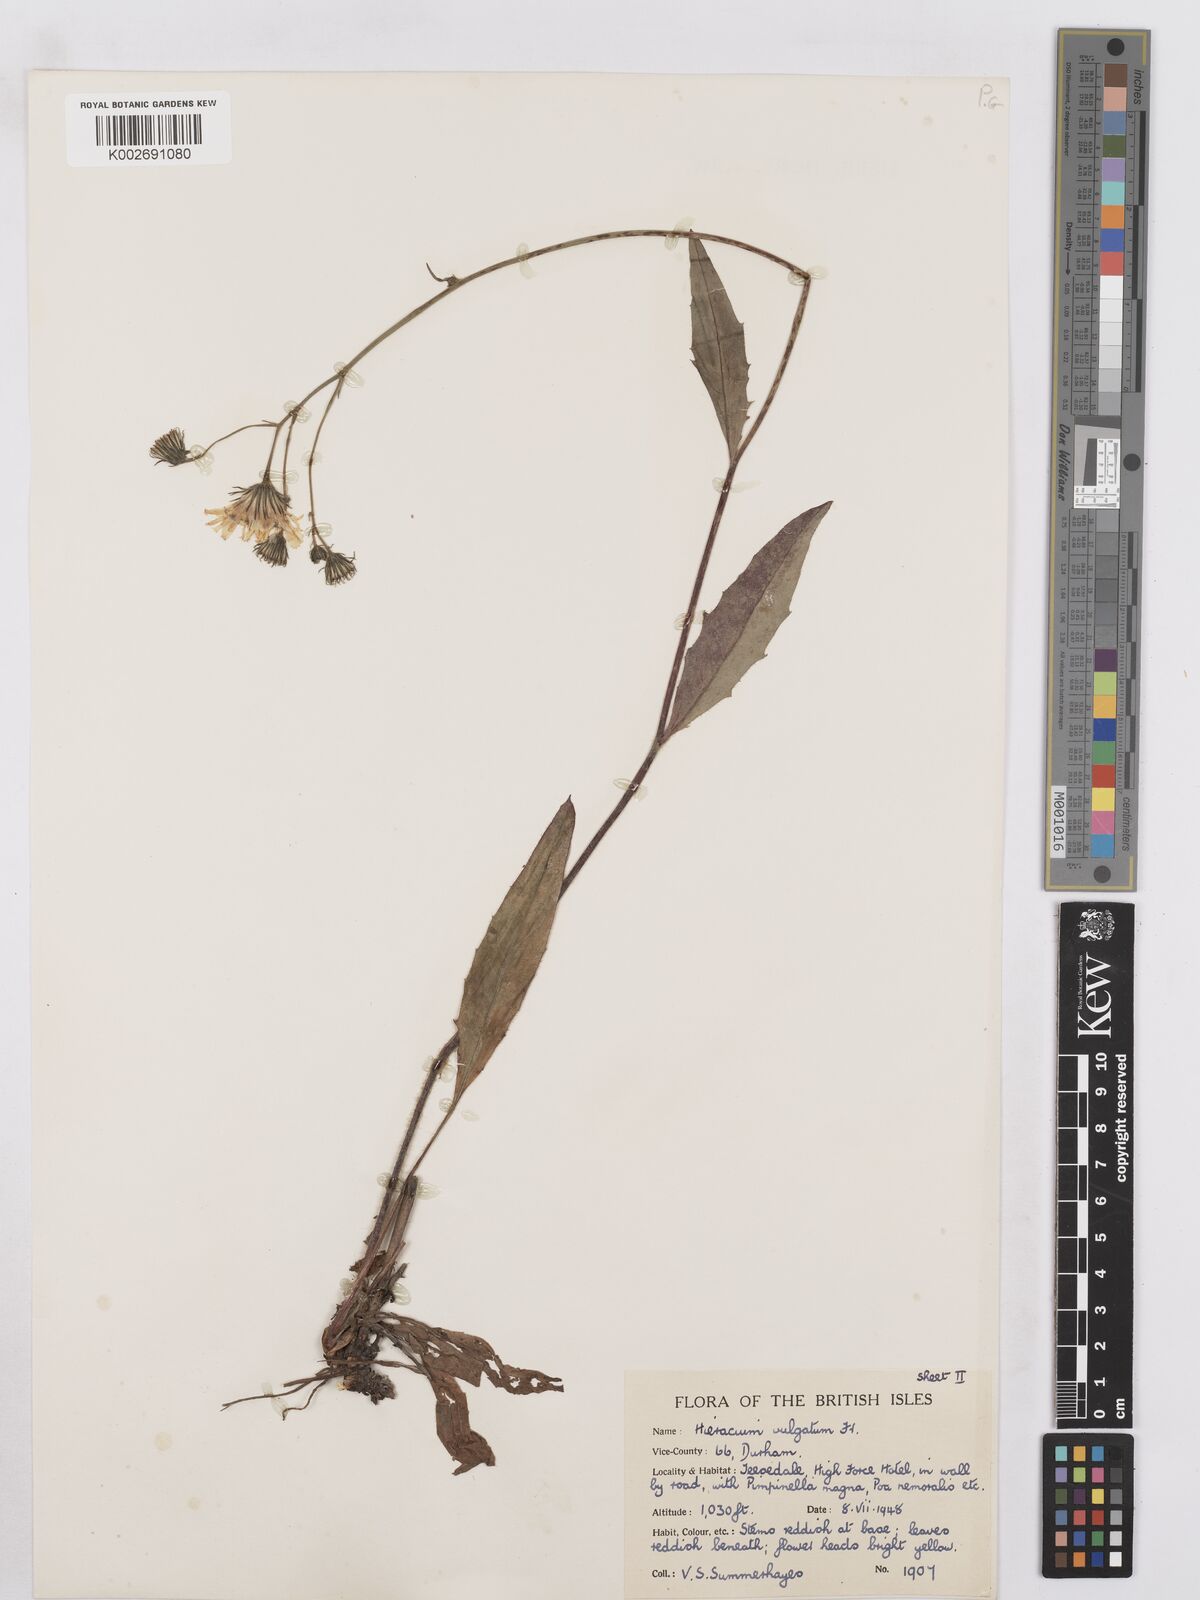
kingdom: Plantae
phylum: Tracheophyta
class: Magnoliopsida
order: Asterales
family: Asteraceae
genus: Hieracium
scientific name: Hieracium lachenalii
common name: Common hawkweed
